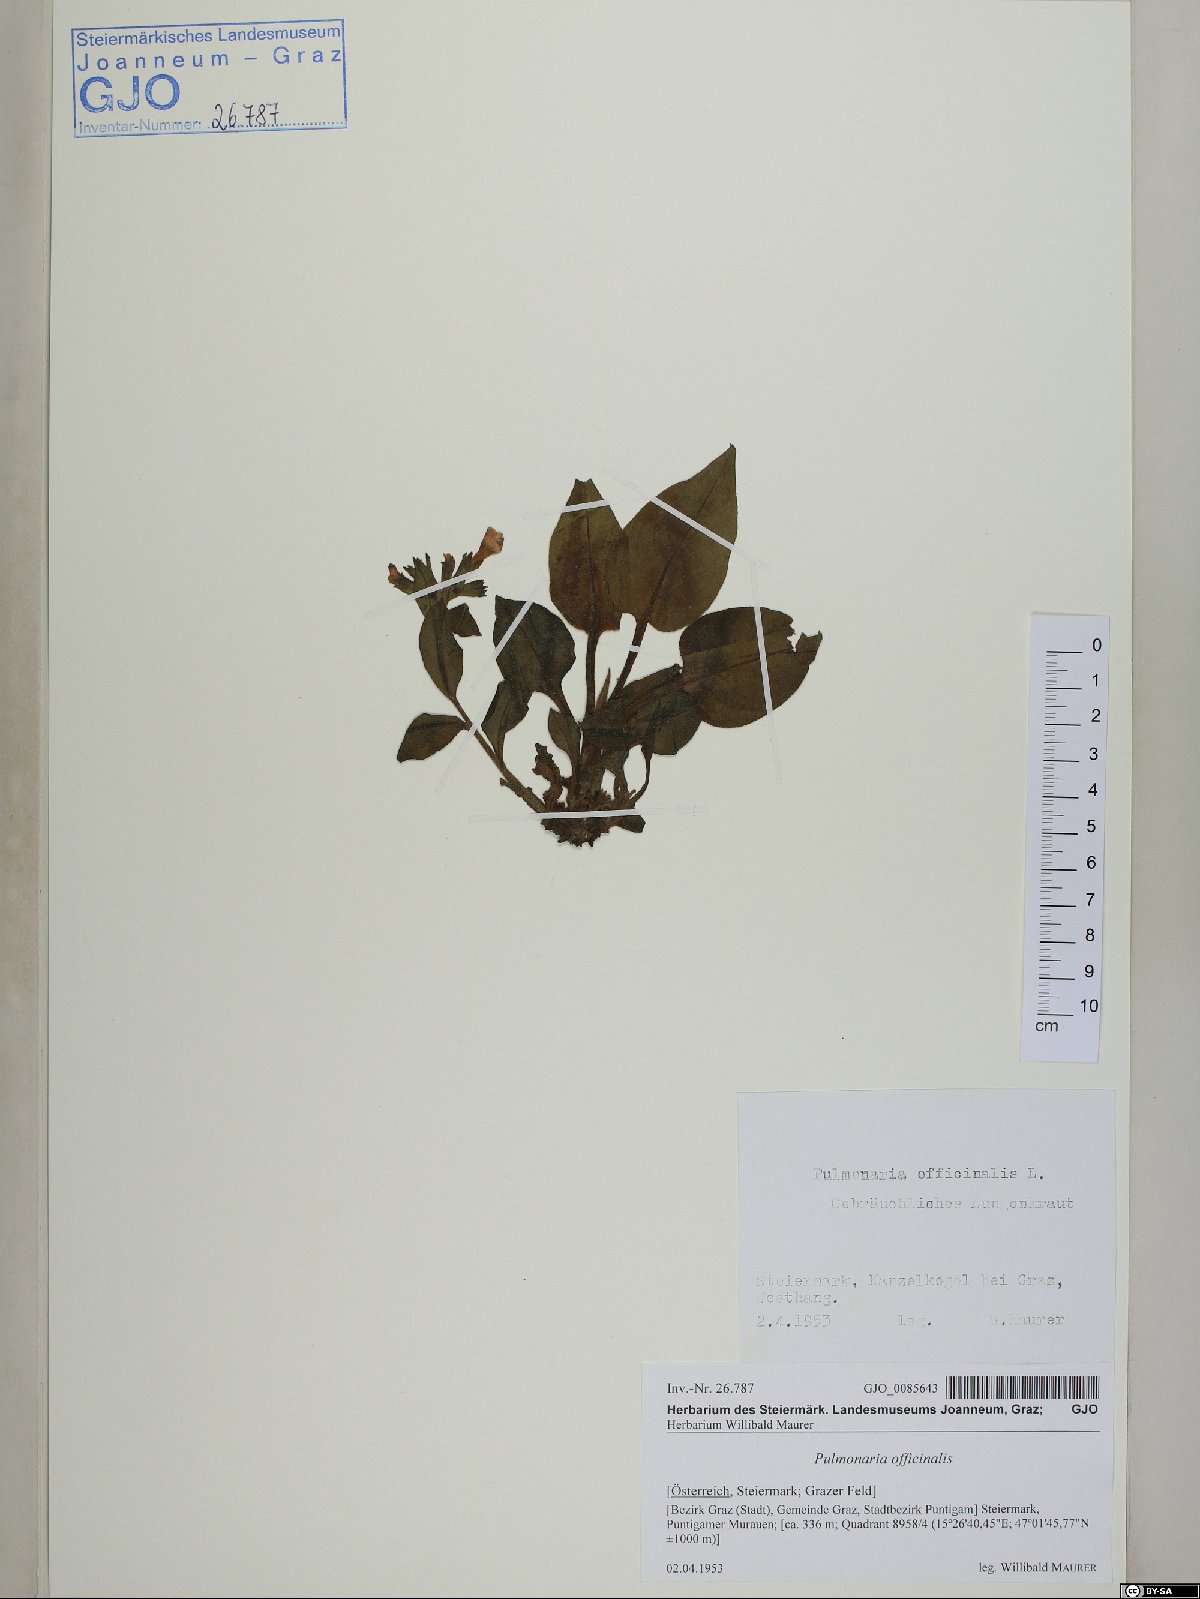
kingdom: Plantae
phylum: Tracheophyta
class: Magnoliopsida
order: Boraginales
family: Boraginaceae
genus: Pulmonaria
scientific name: Pulmonaria officinalis
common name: Lungwort
